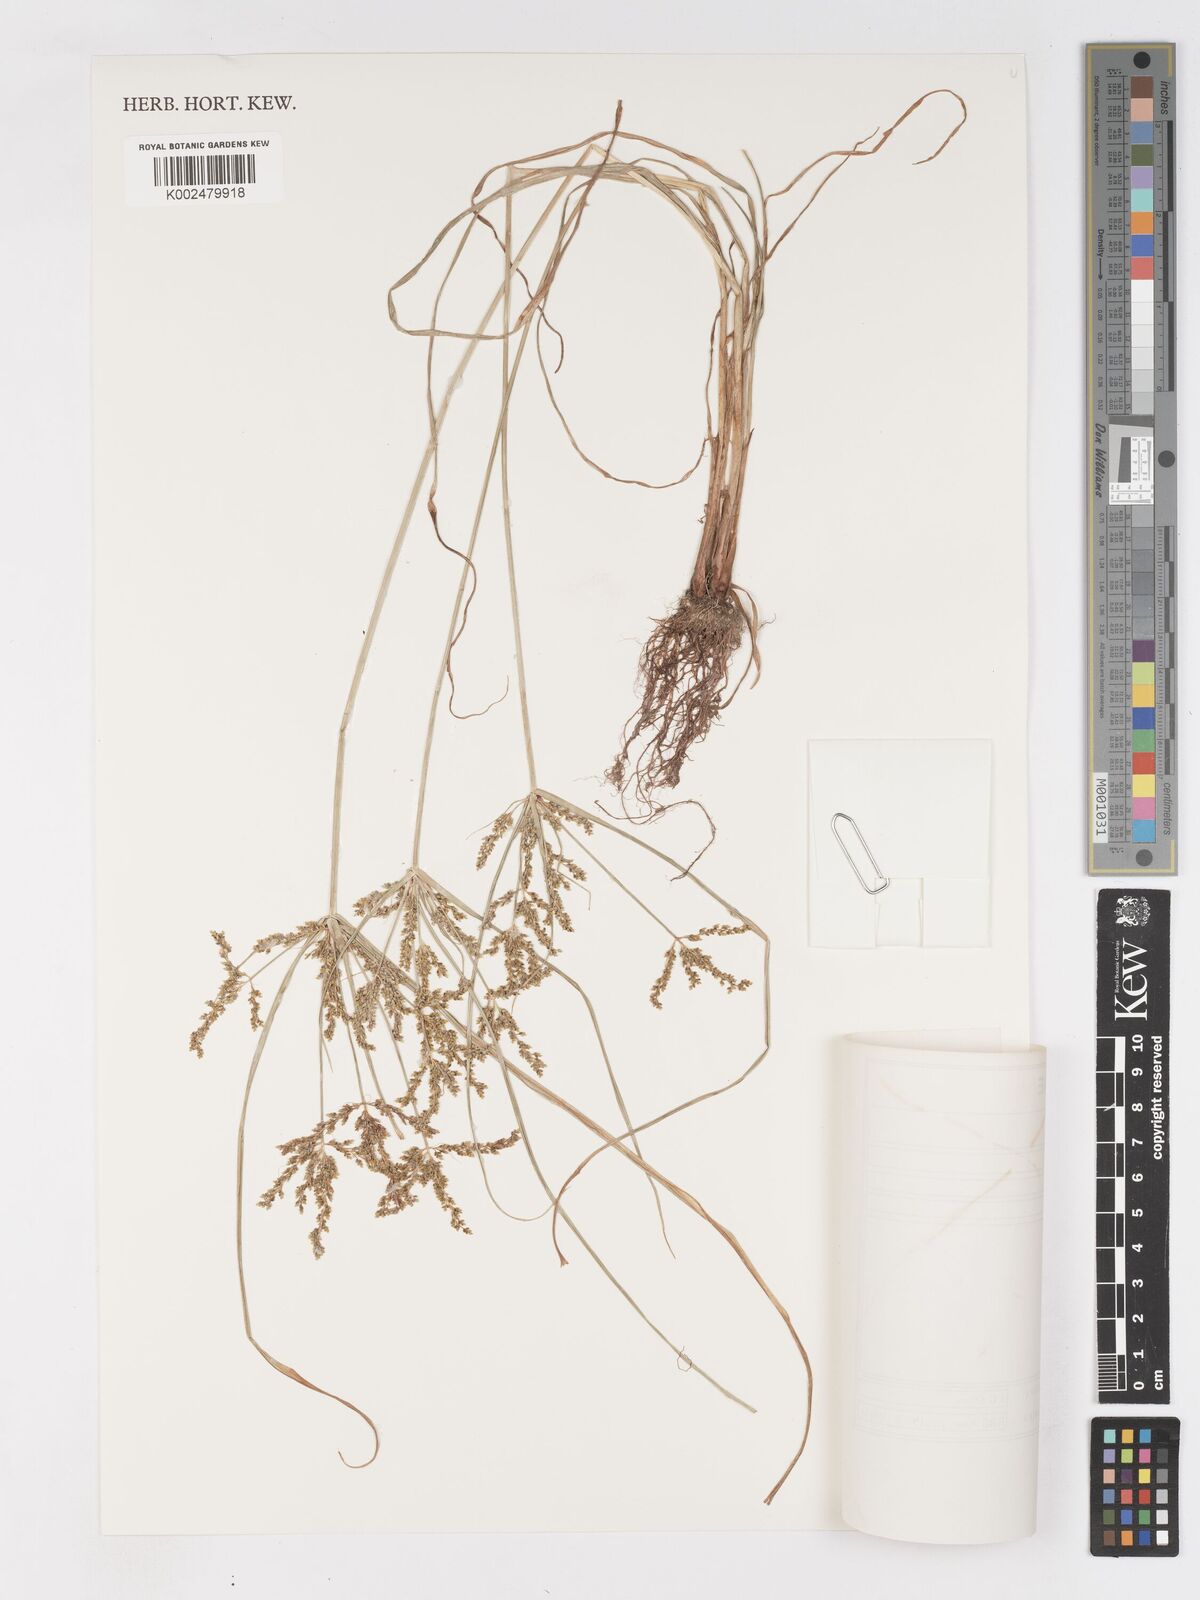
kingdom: Plantae
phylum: Tracheophyta
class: Liliopsida
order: Poales
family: Cyperaceae
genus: Cyperus
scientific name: Cyperus iria
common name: Ricefield flatsedge
